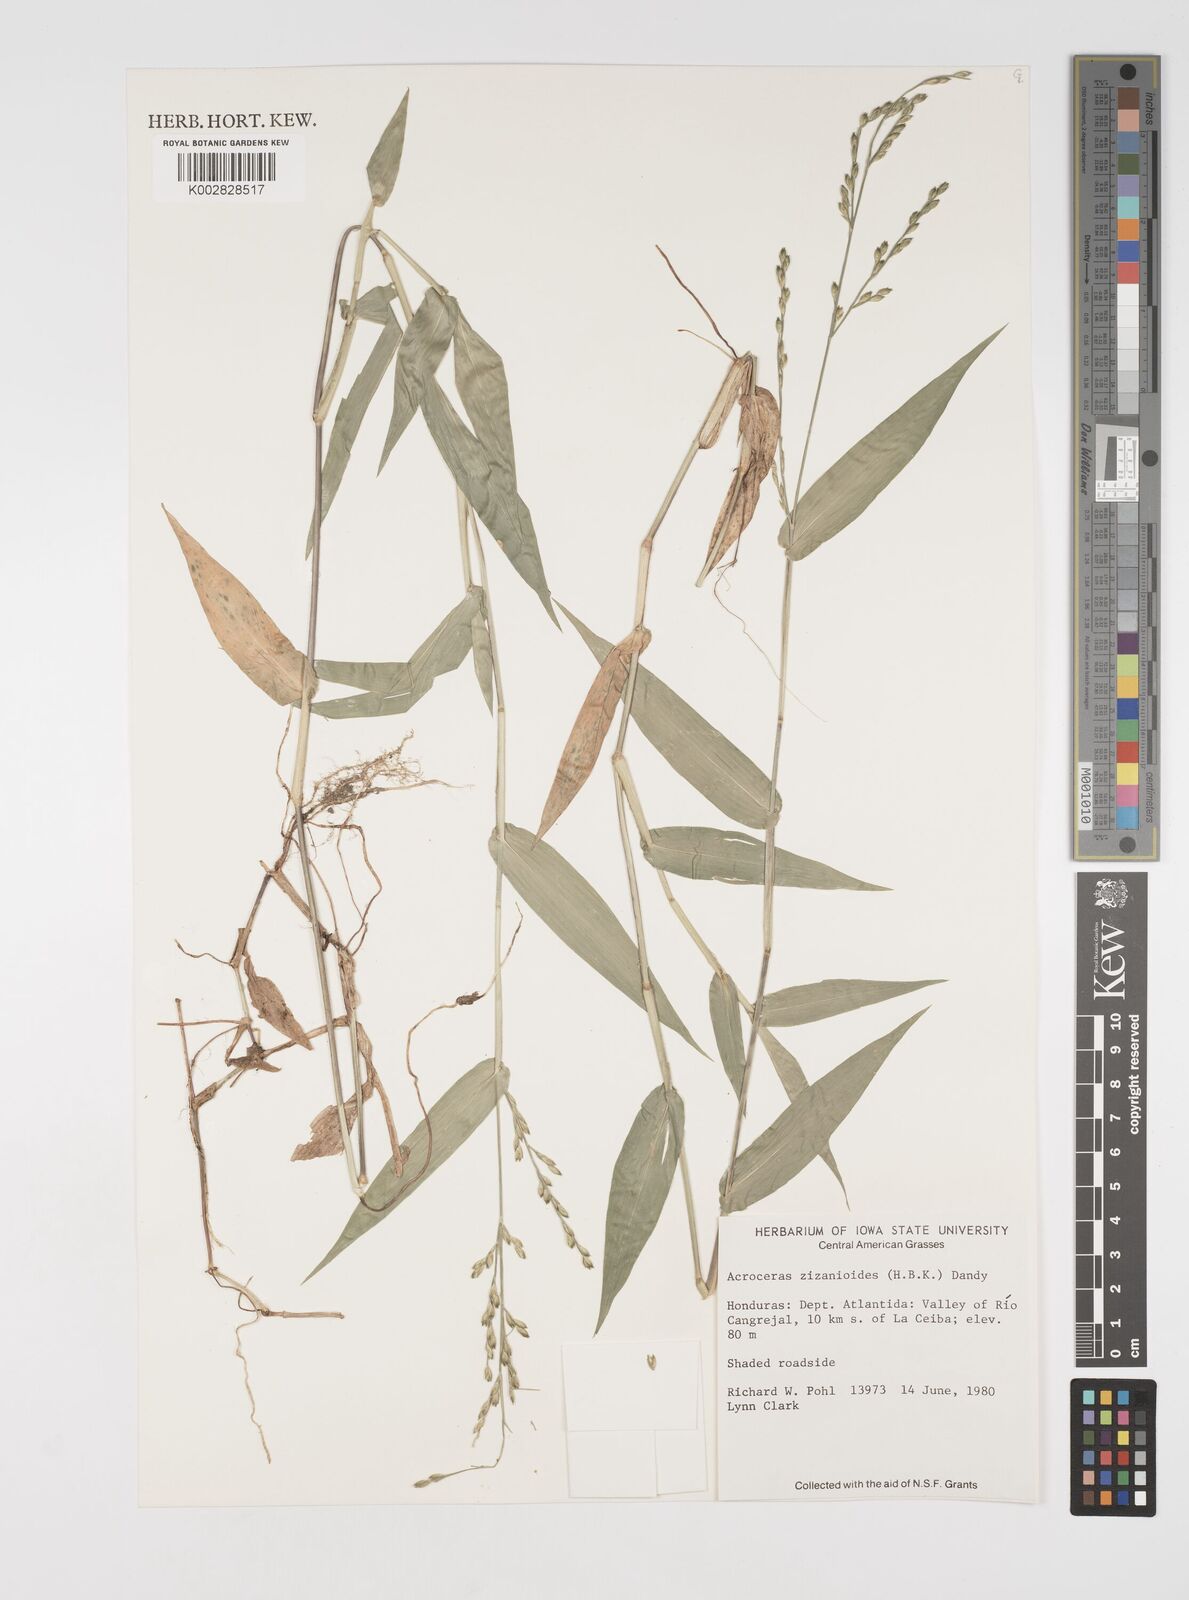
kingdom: Plantae
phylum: Tracheophyta
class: Liliopsida
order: Poales
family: Poaceae
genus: Acroceras
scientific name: Acroceras zizanioides
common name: Oat grass
